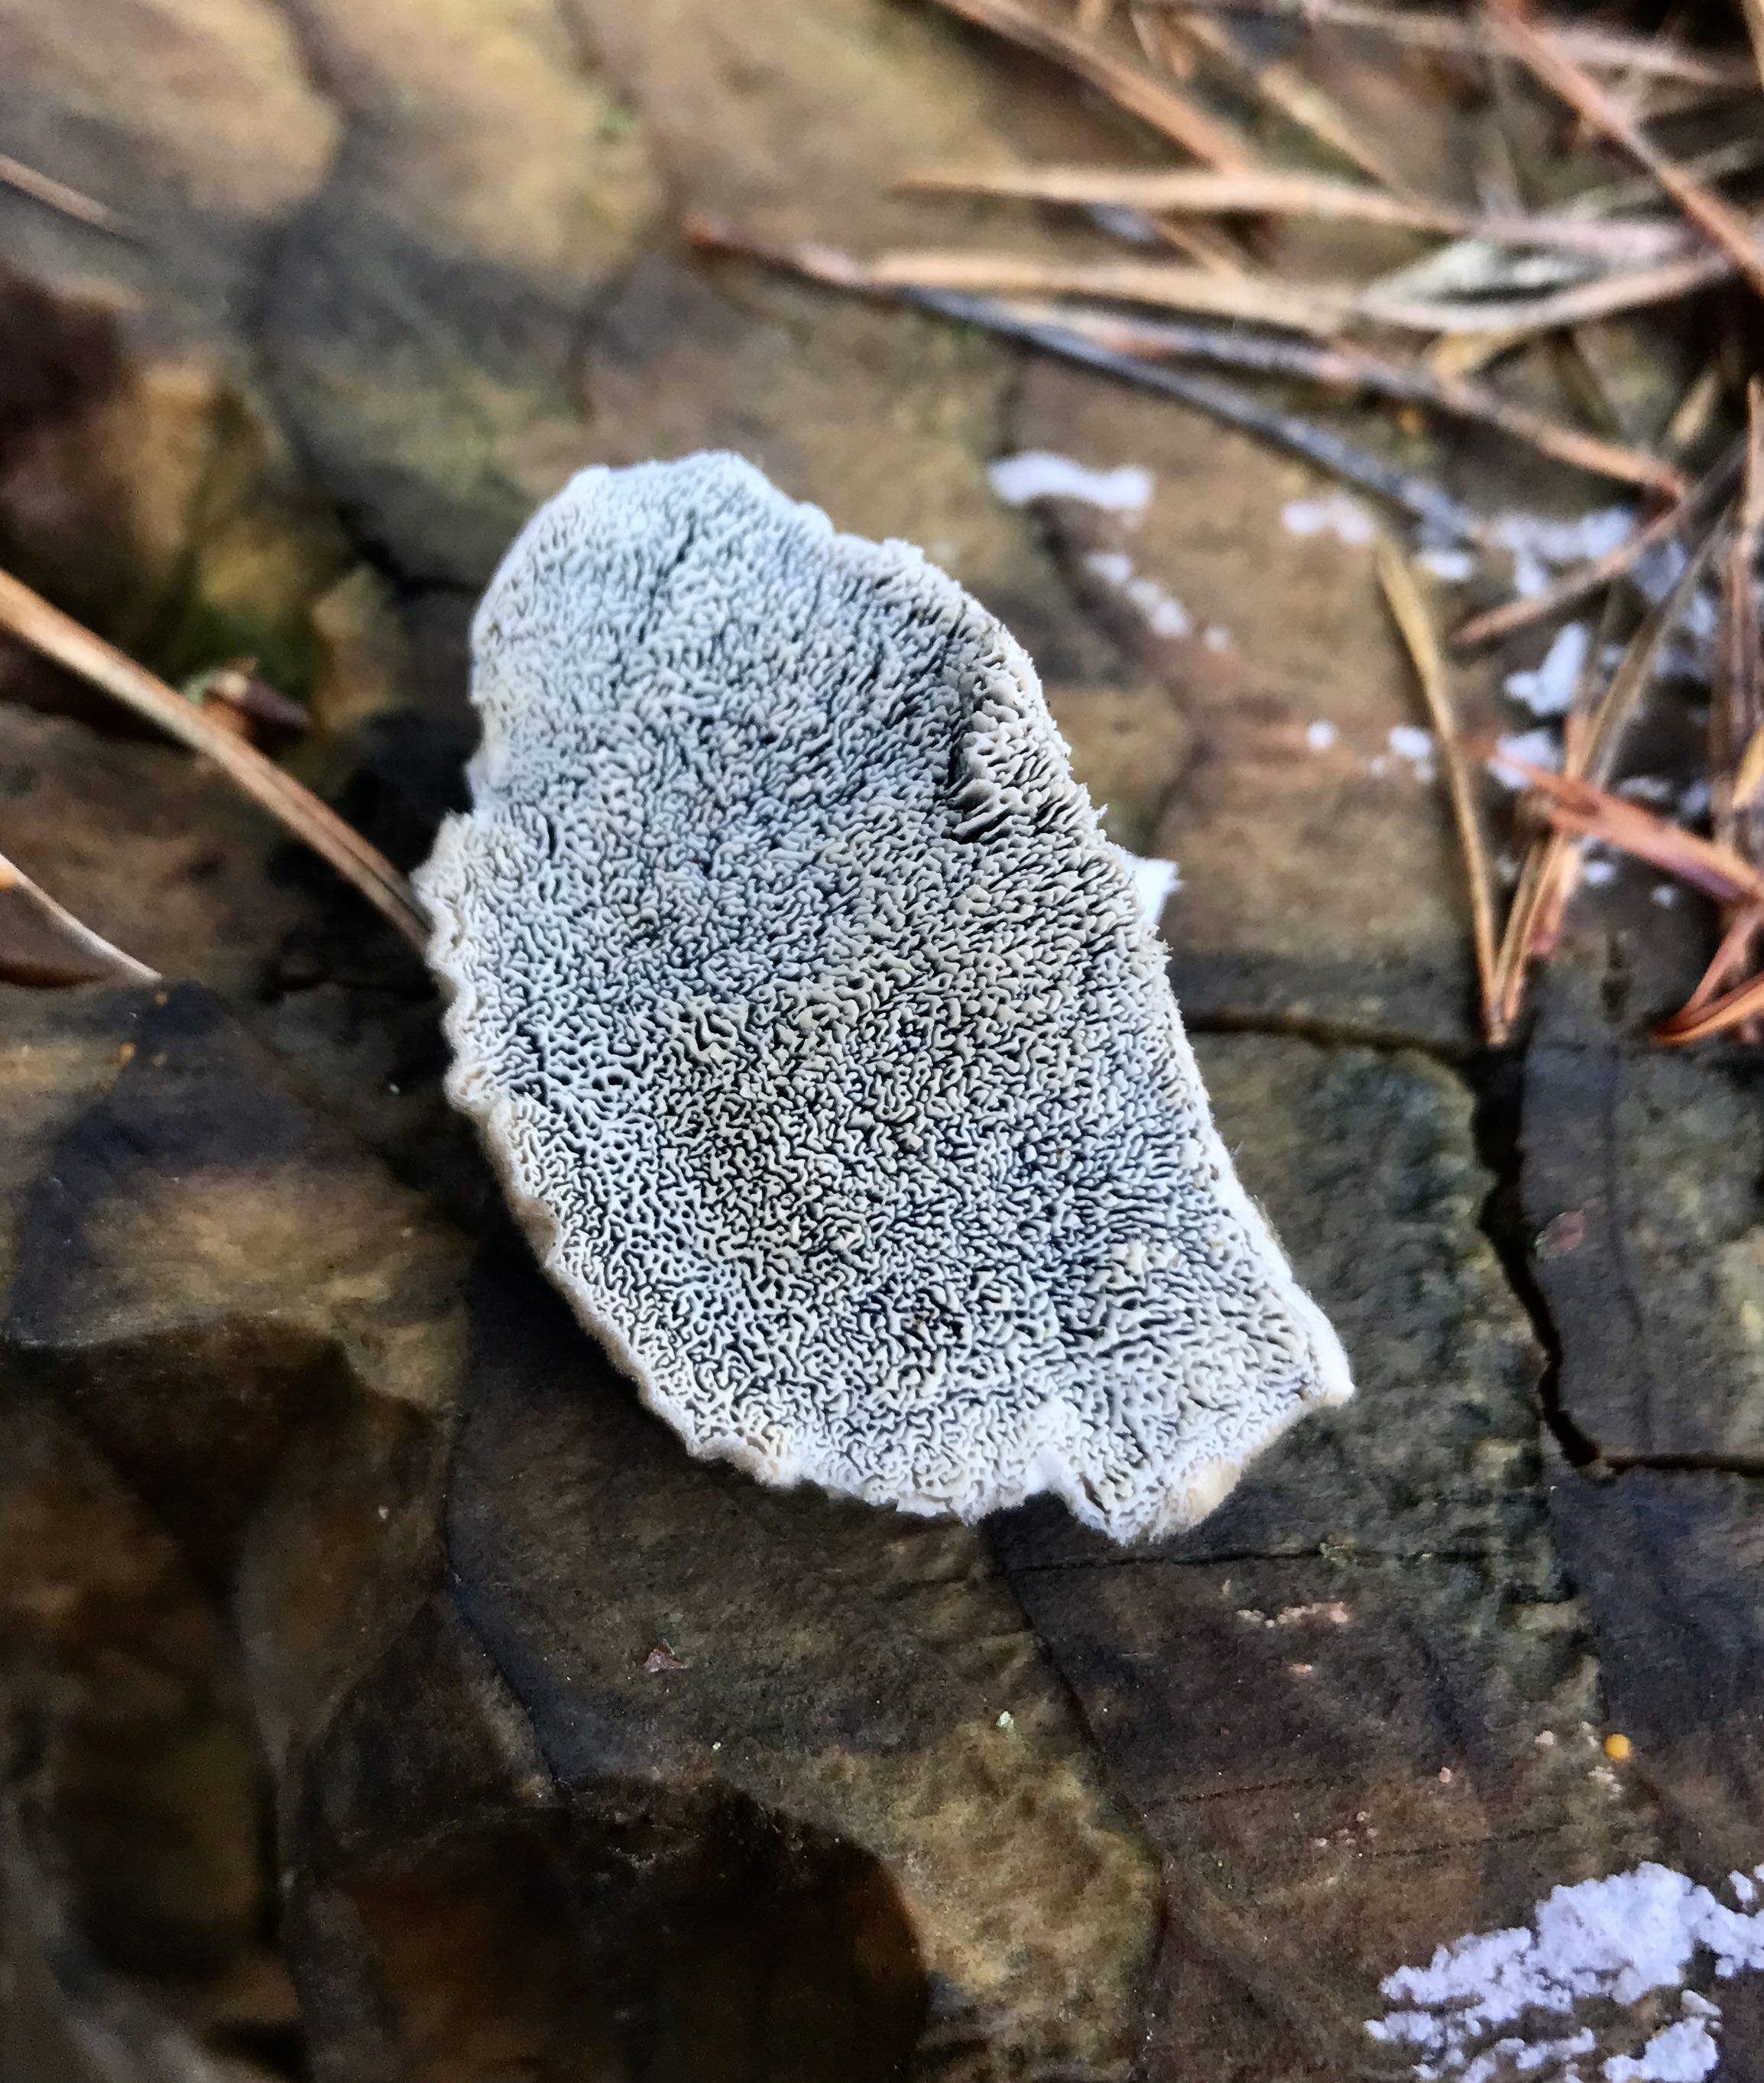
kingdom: Fungi
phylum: Basidiomycota
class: Agaricomycetes
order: Polyporales
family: Polyporaceae
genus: Cyanosporus
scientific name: Cyanosporus caesius
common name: blålig kødporesvamp
